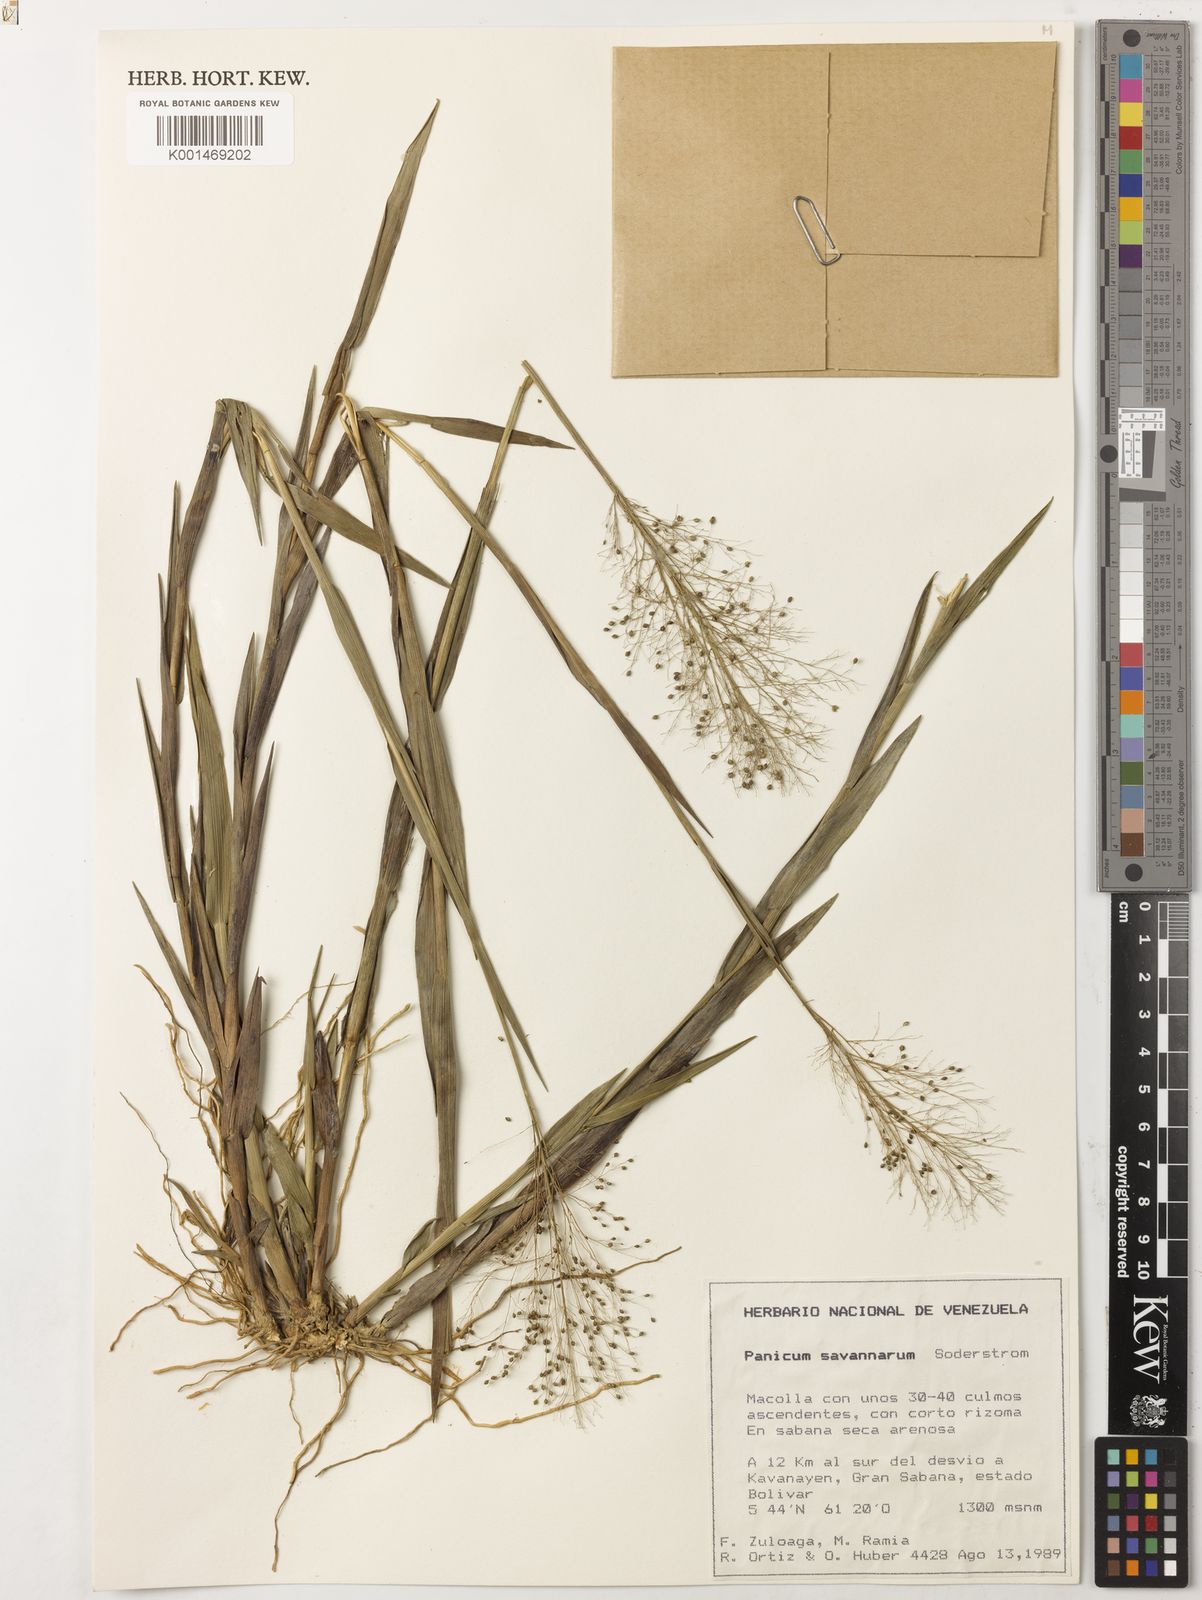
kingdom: Plantae
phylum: Tracheophyta
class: Liliopsida
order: Poales
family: Poaceae
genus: Trichanthecium
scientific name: Trichanthecium cyanescens
